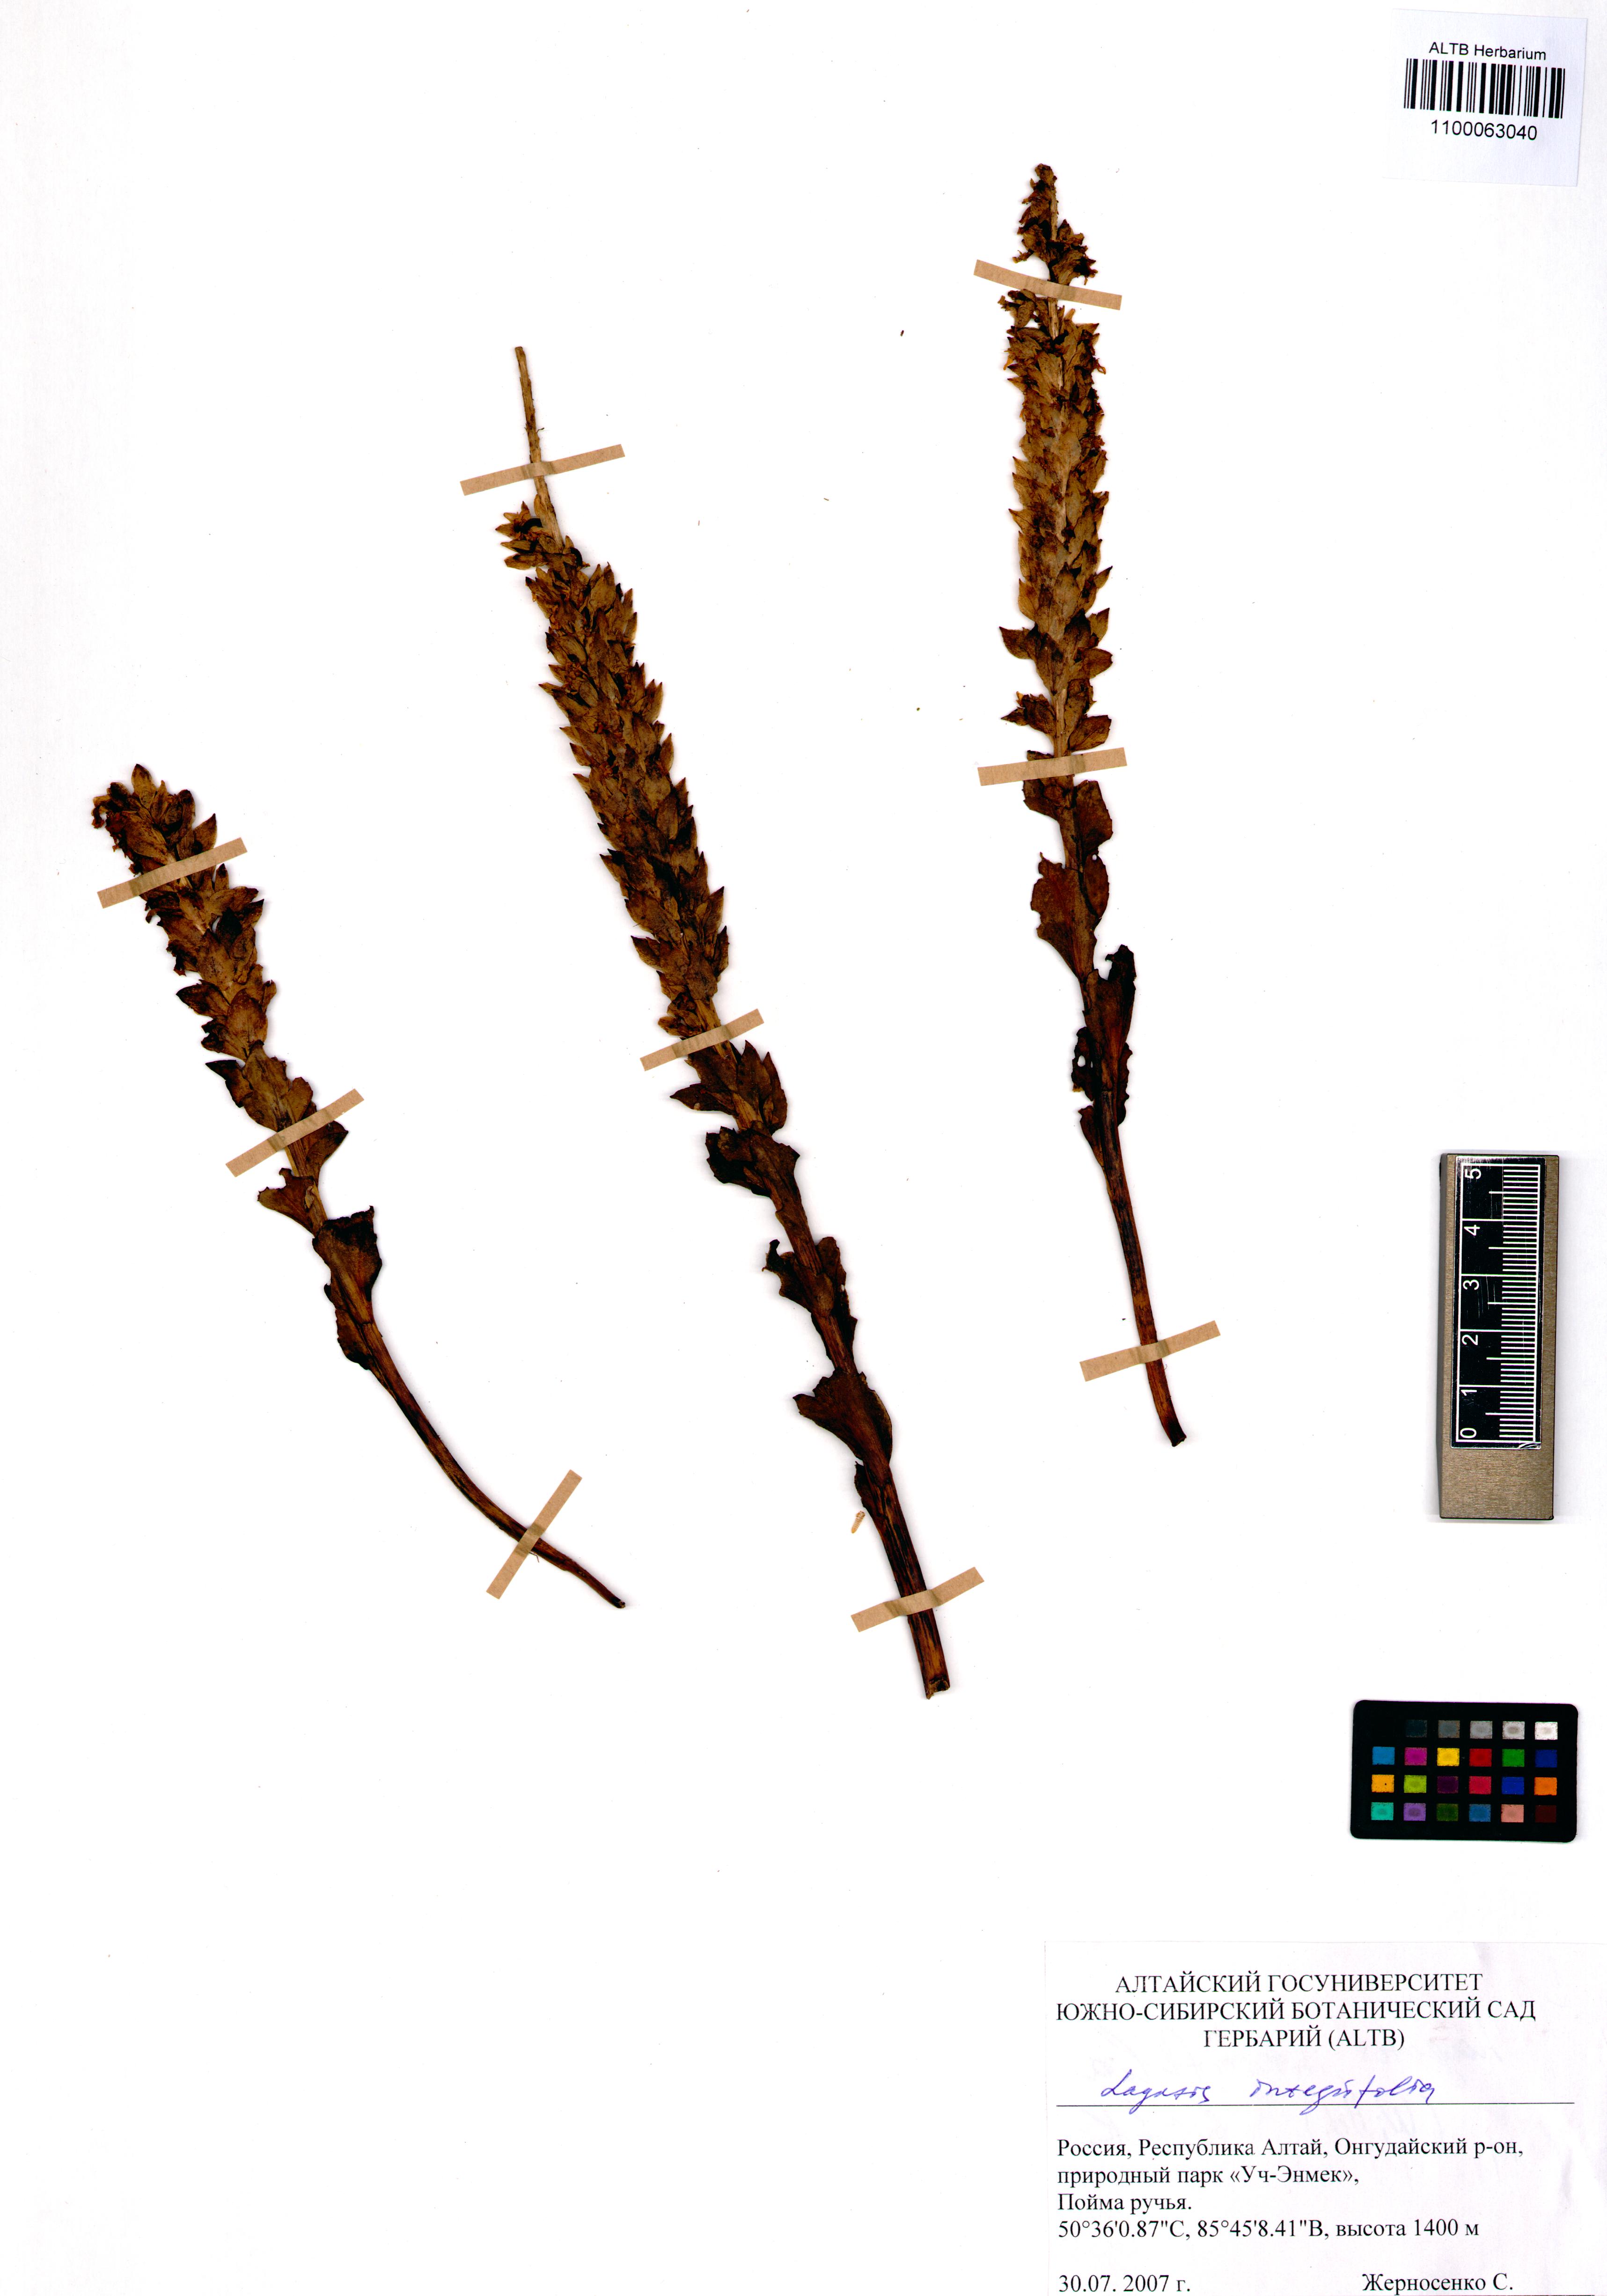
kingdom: Plantae
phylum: Tracheophyta
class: Magnoliopsida
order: Lamiales
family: Plantaginaceae
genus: Lagotis
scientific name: Lagotis integrifolia
